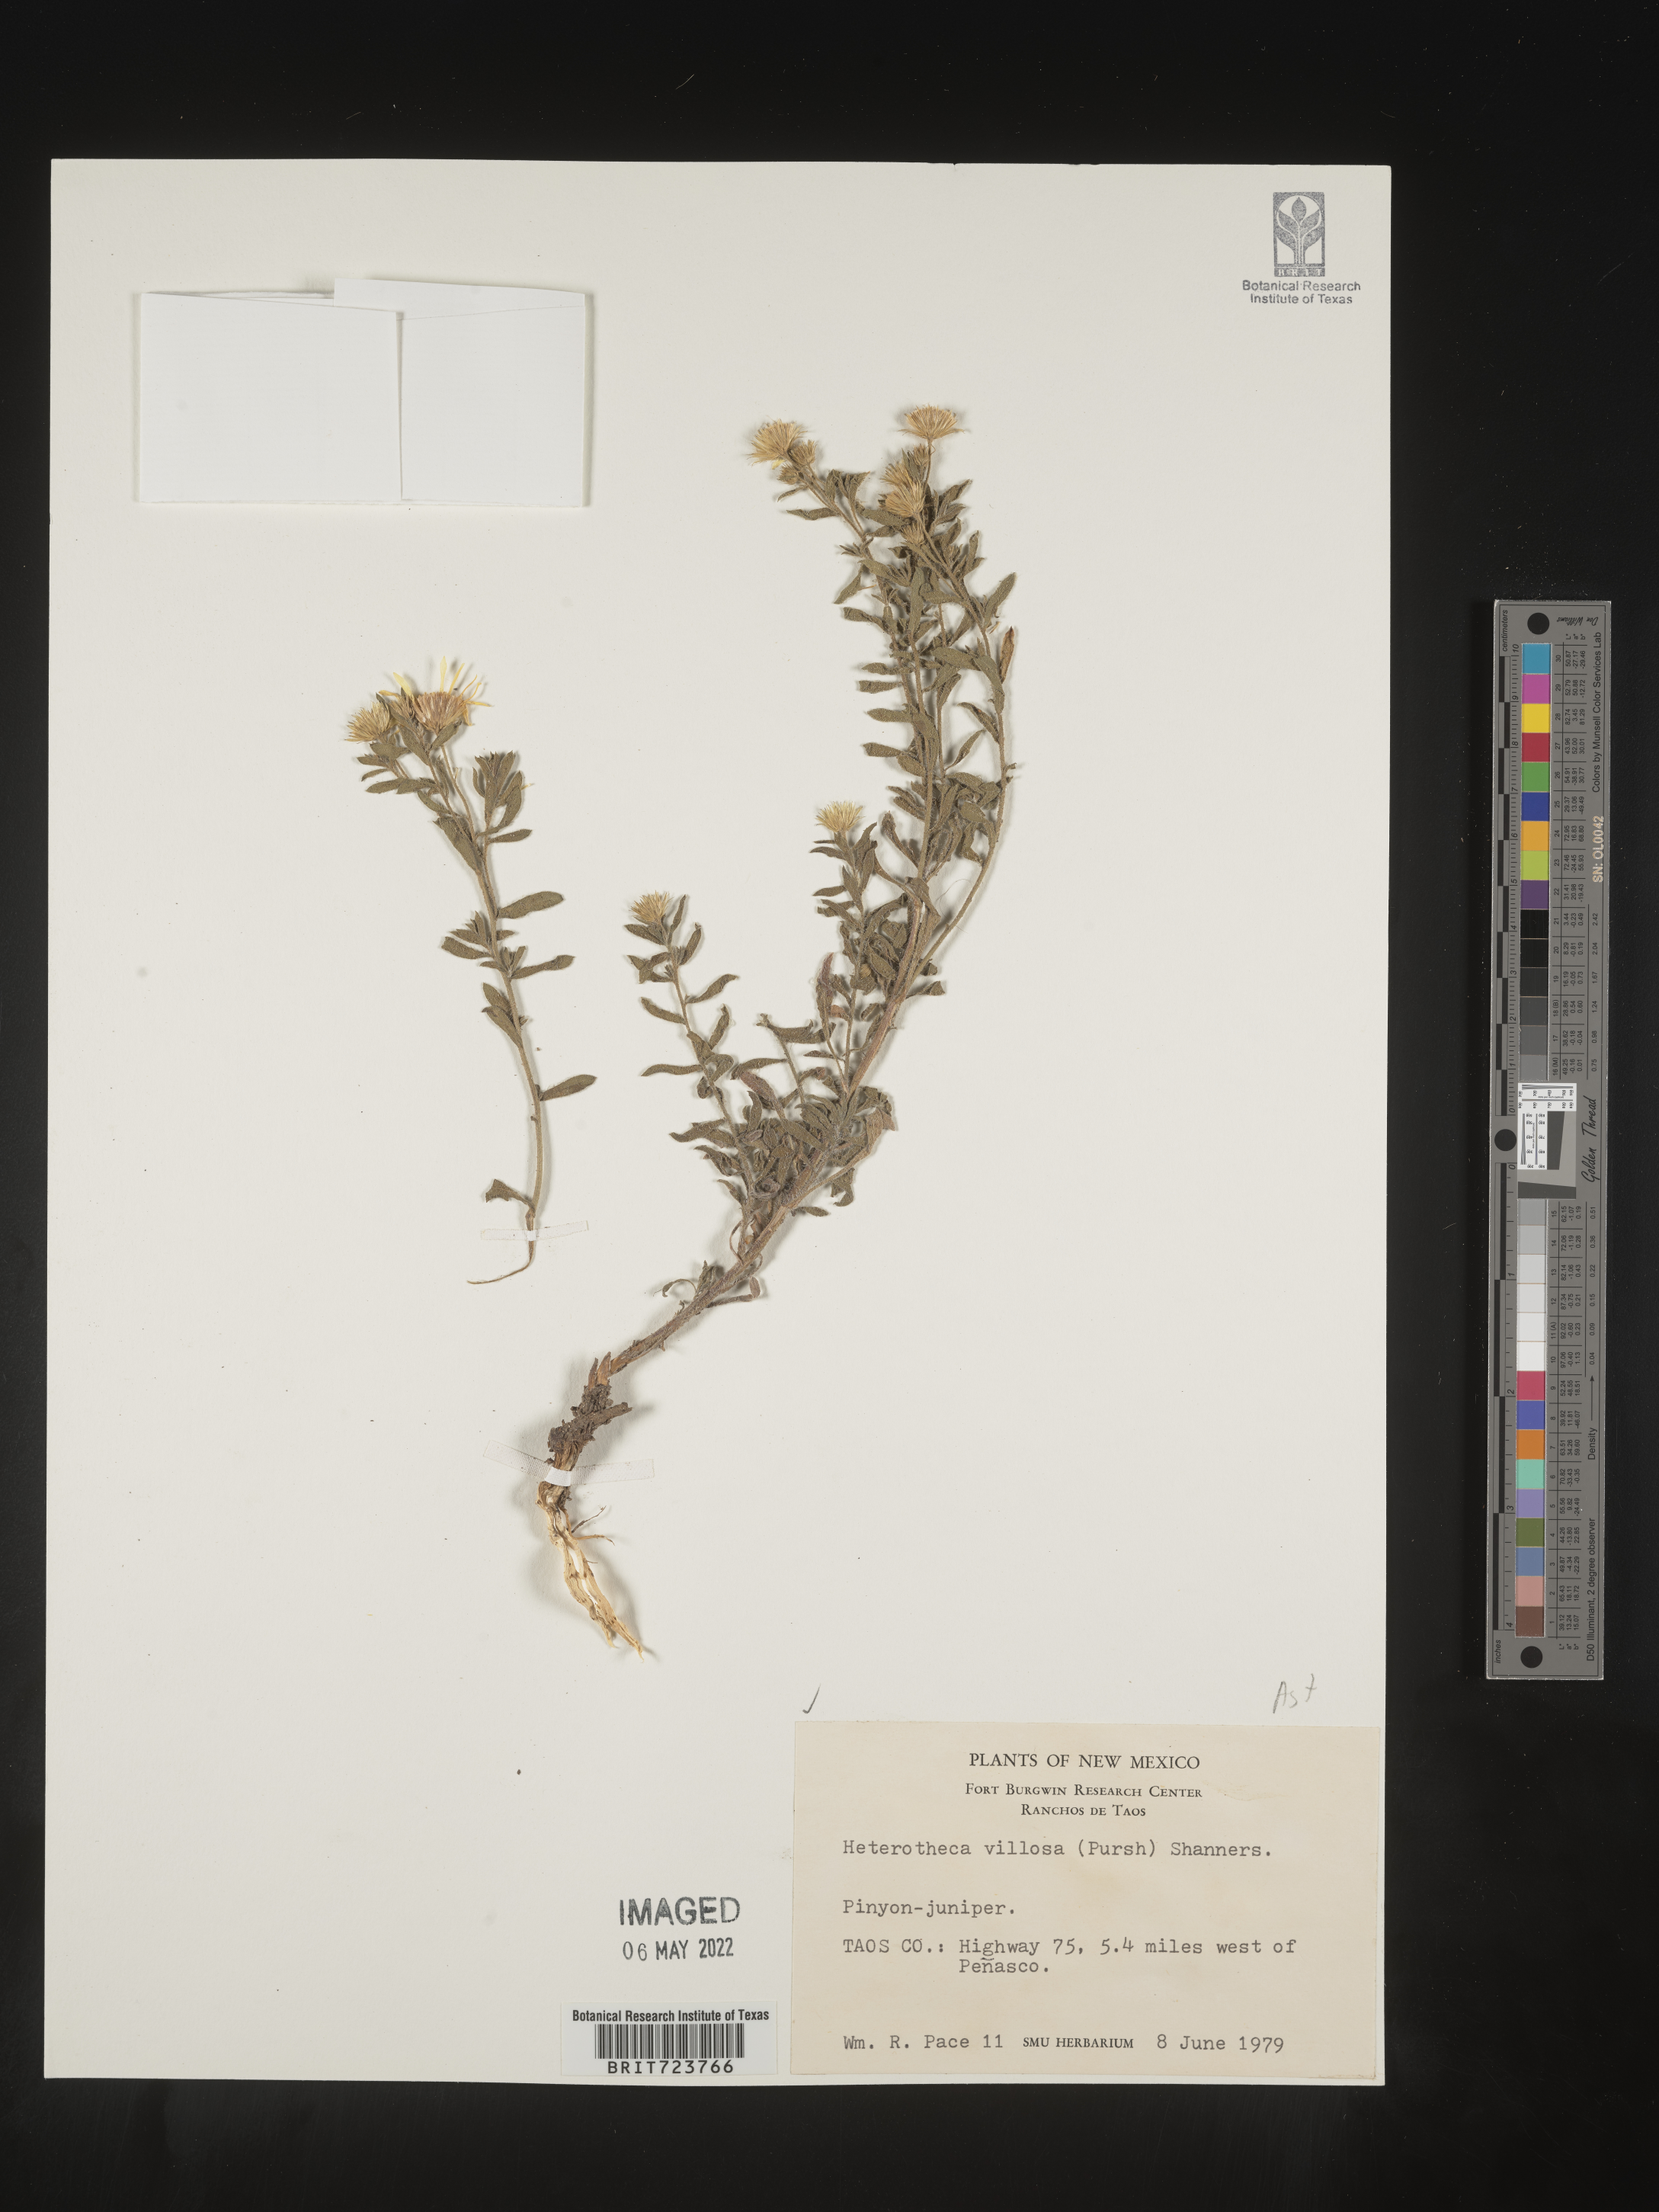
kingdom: Plantae
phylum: Tracheophyta
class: Magnoliopsida
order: Asterales
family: Asteraceae
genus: Heterotheca
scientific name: Heterotheca hirsutissima
